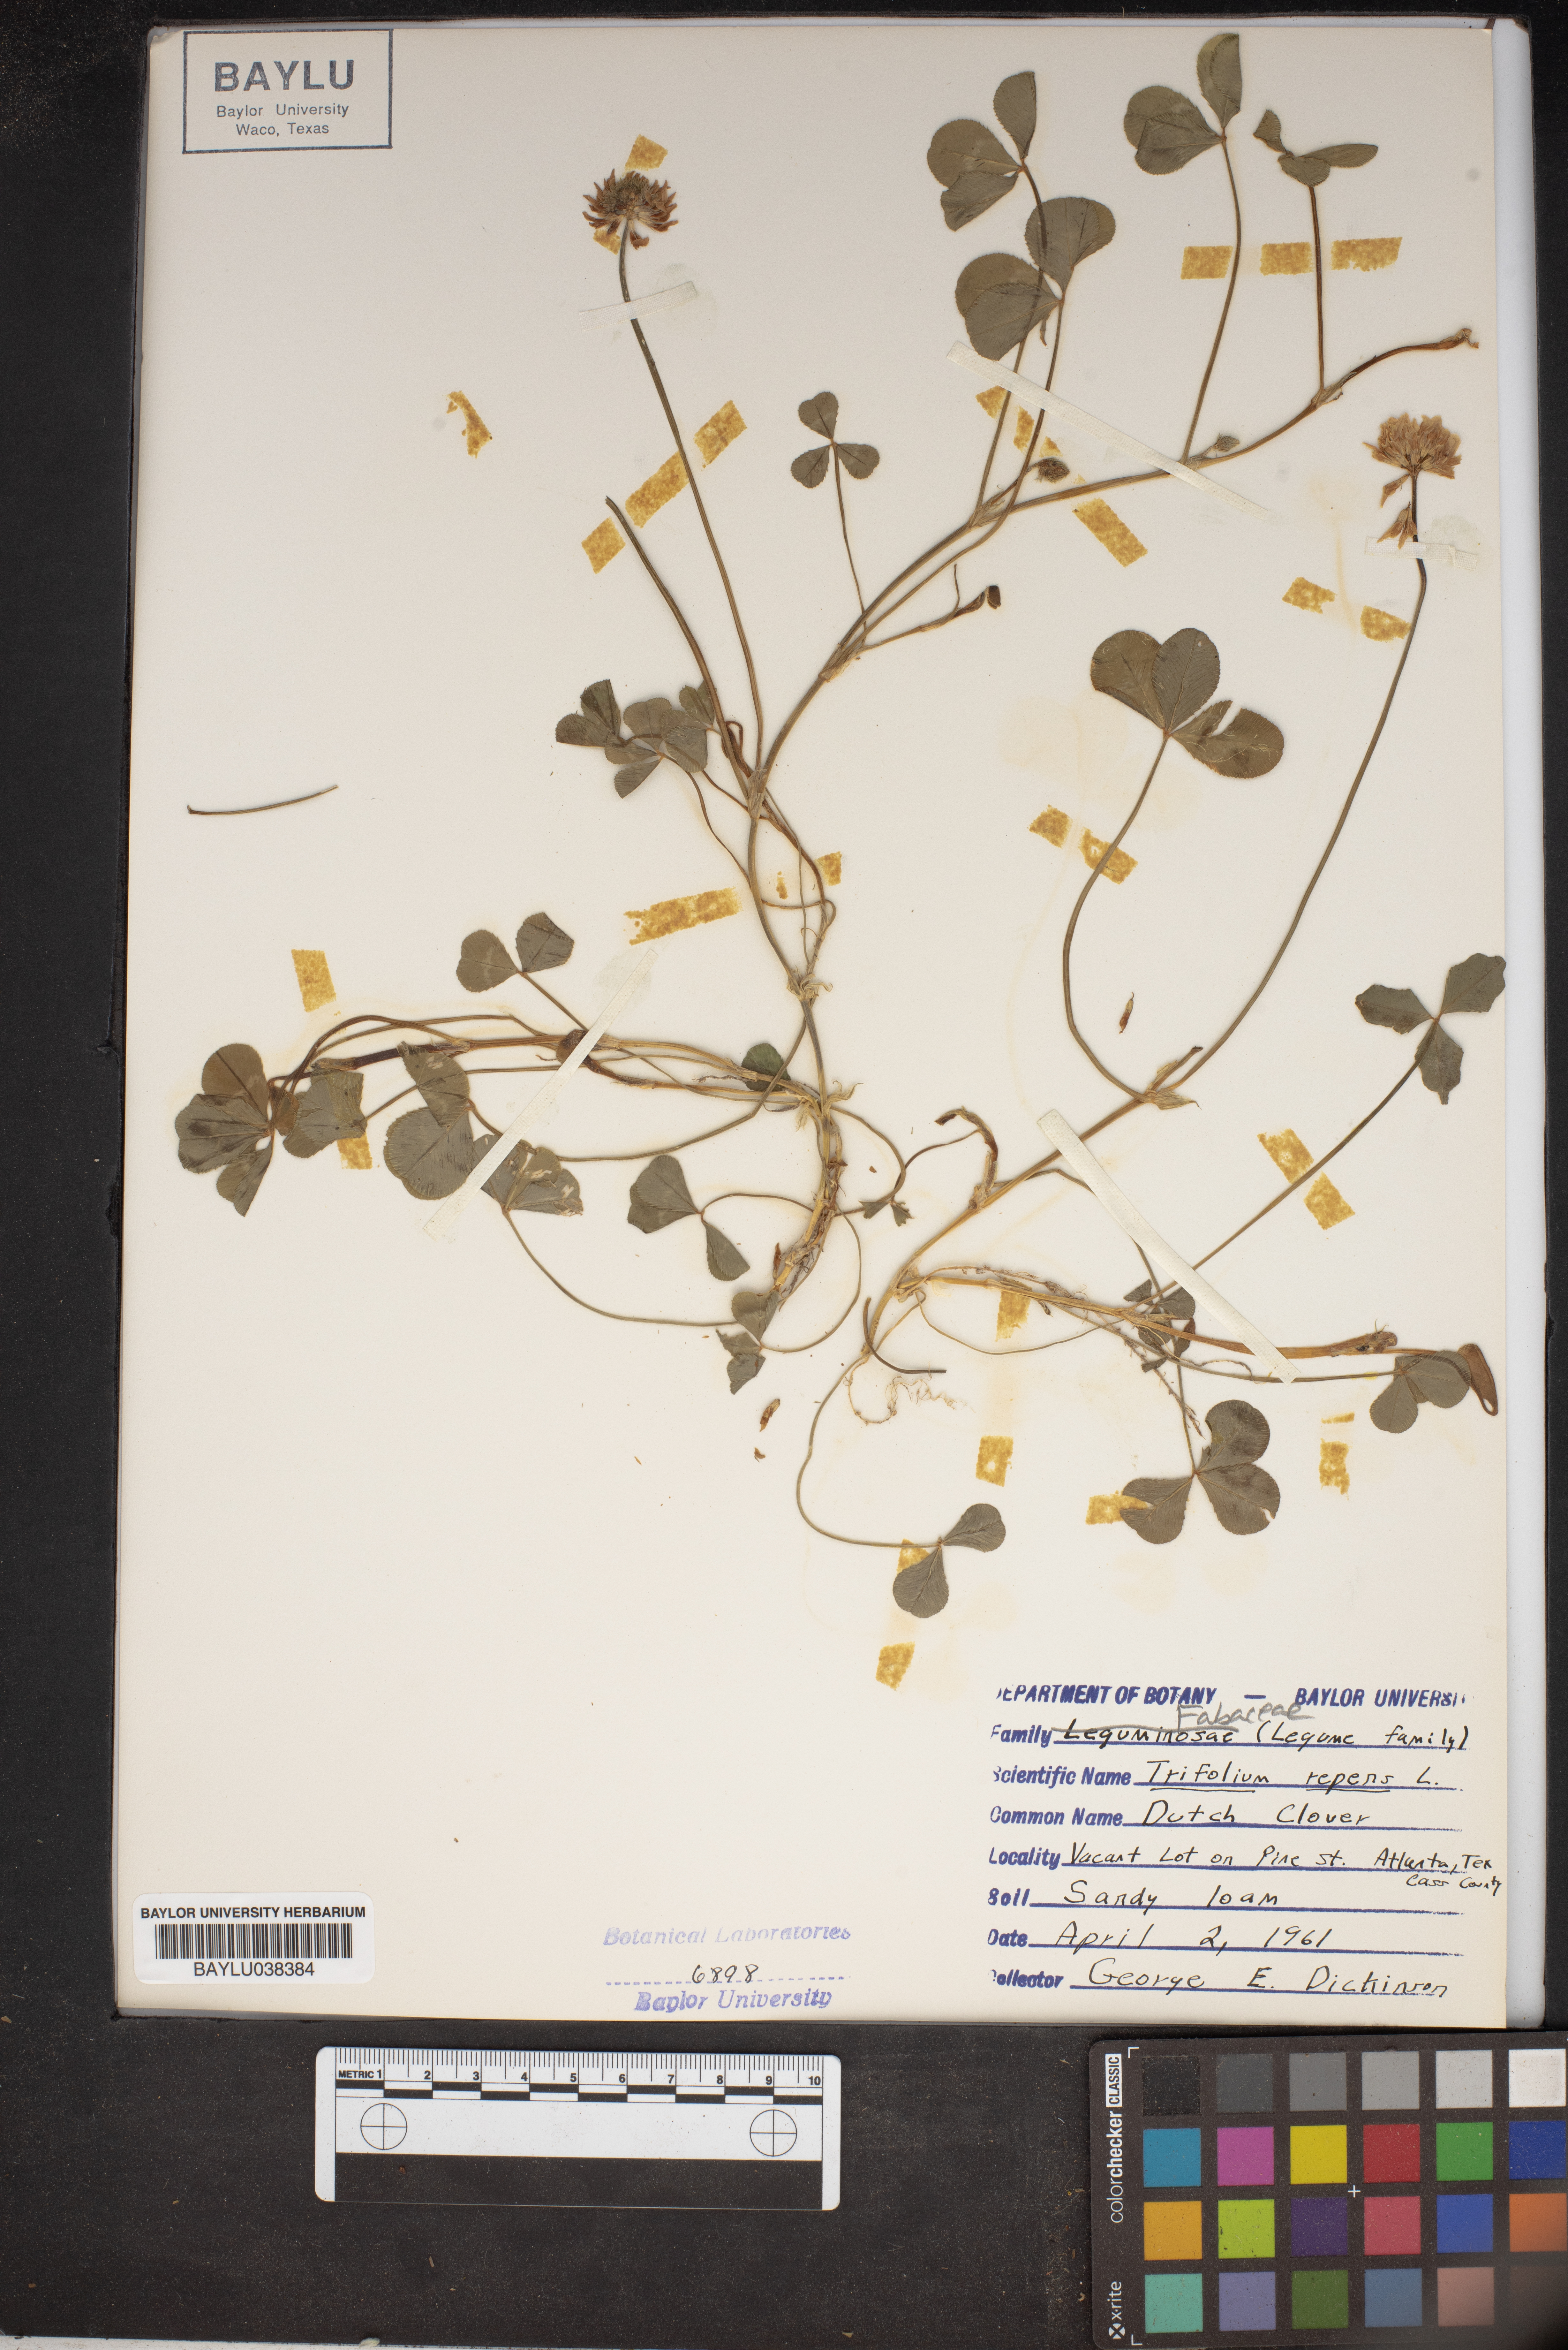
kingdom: Plantae
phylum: Tracheophyta
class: Magnoliopsida
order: Fabales
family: Fabaceae
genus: Trifolium
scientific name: Trifolium repens
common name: White clover
